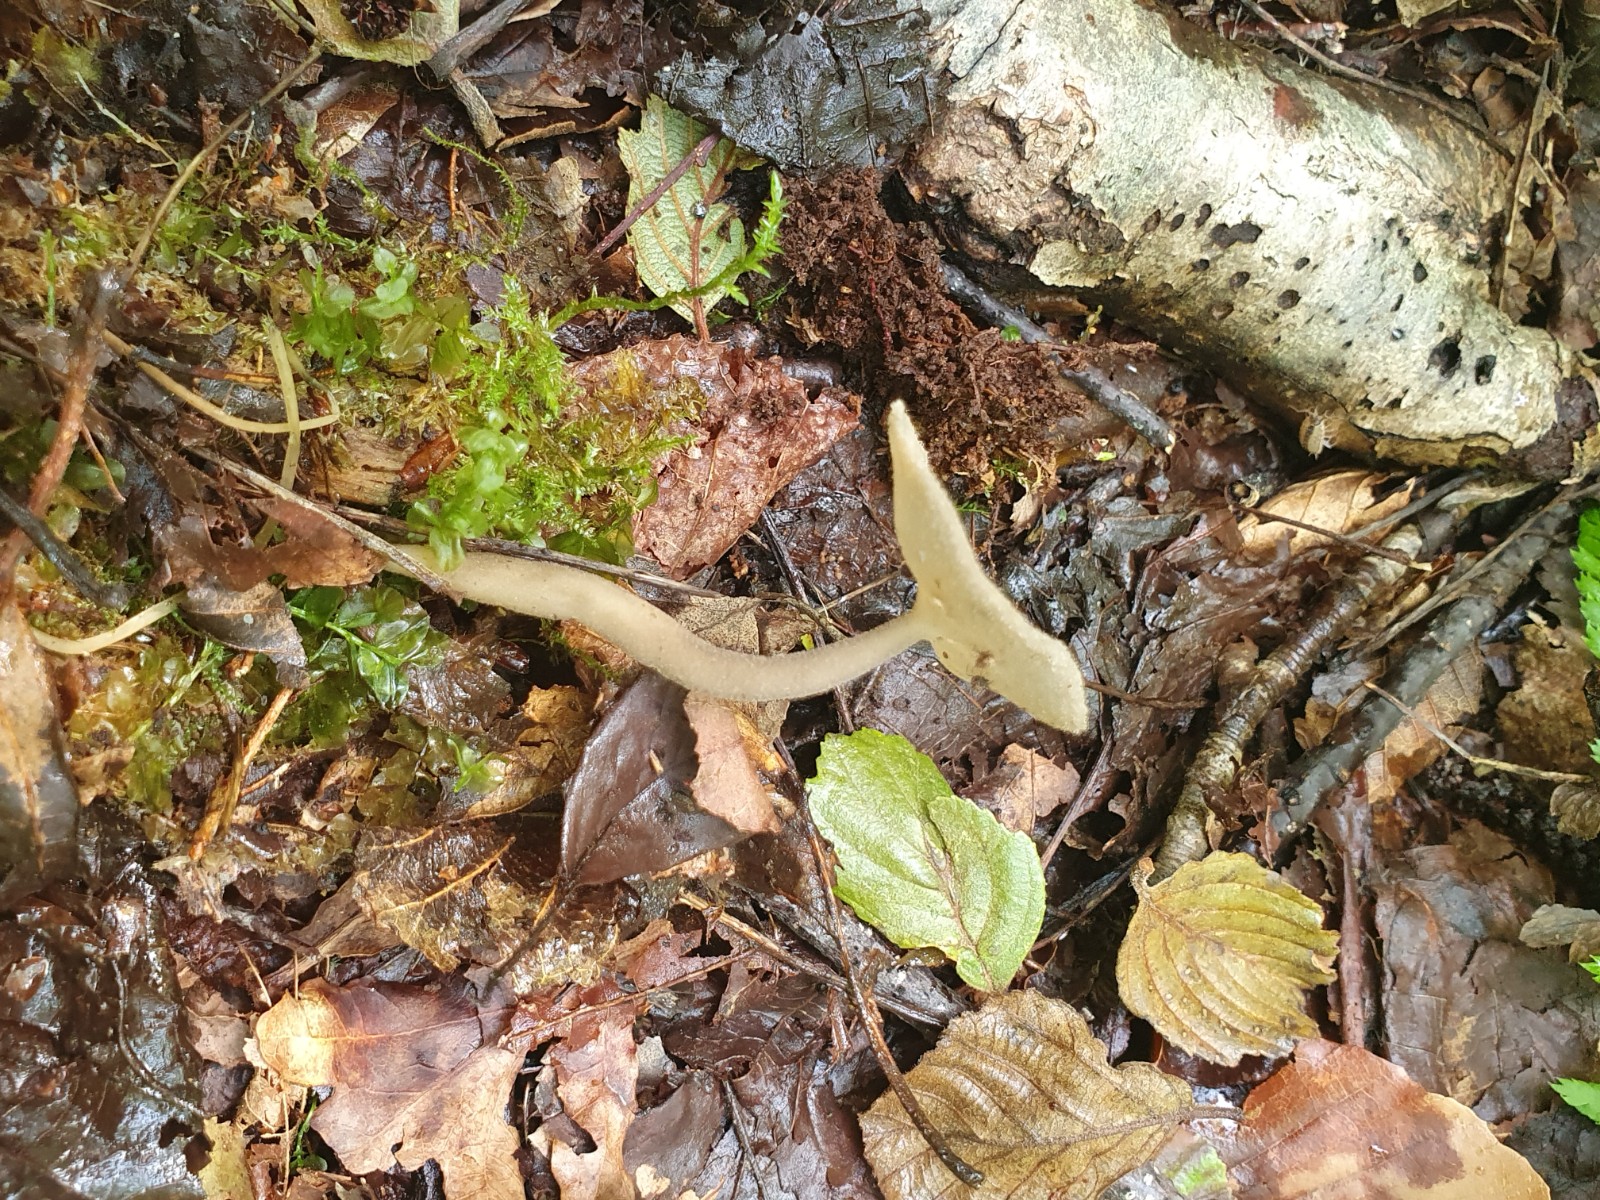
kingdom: Fungi
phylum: Ascomycota
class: Pezizomycetes
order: Pezizales
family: Helvellaceae
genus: Helvella
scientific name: Helvella macropus
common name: højstokket foldhat
